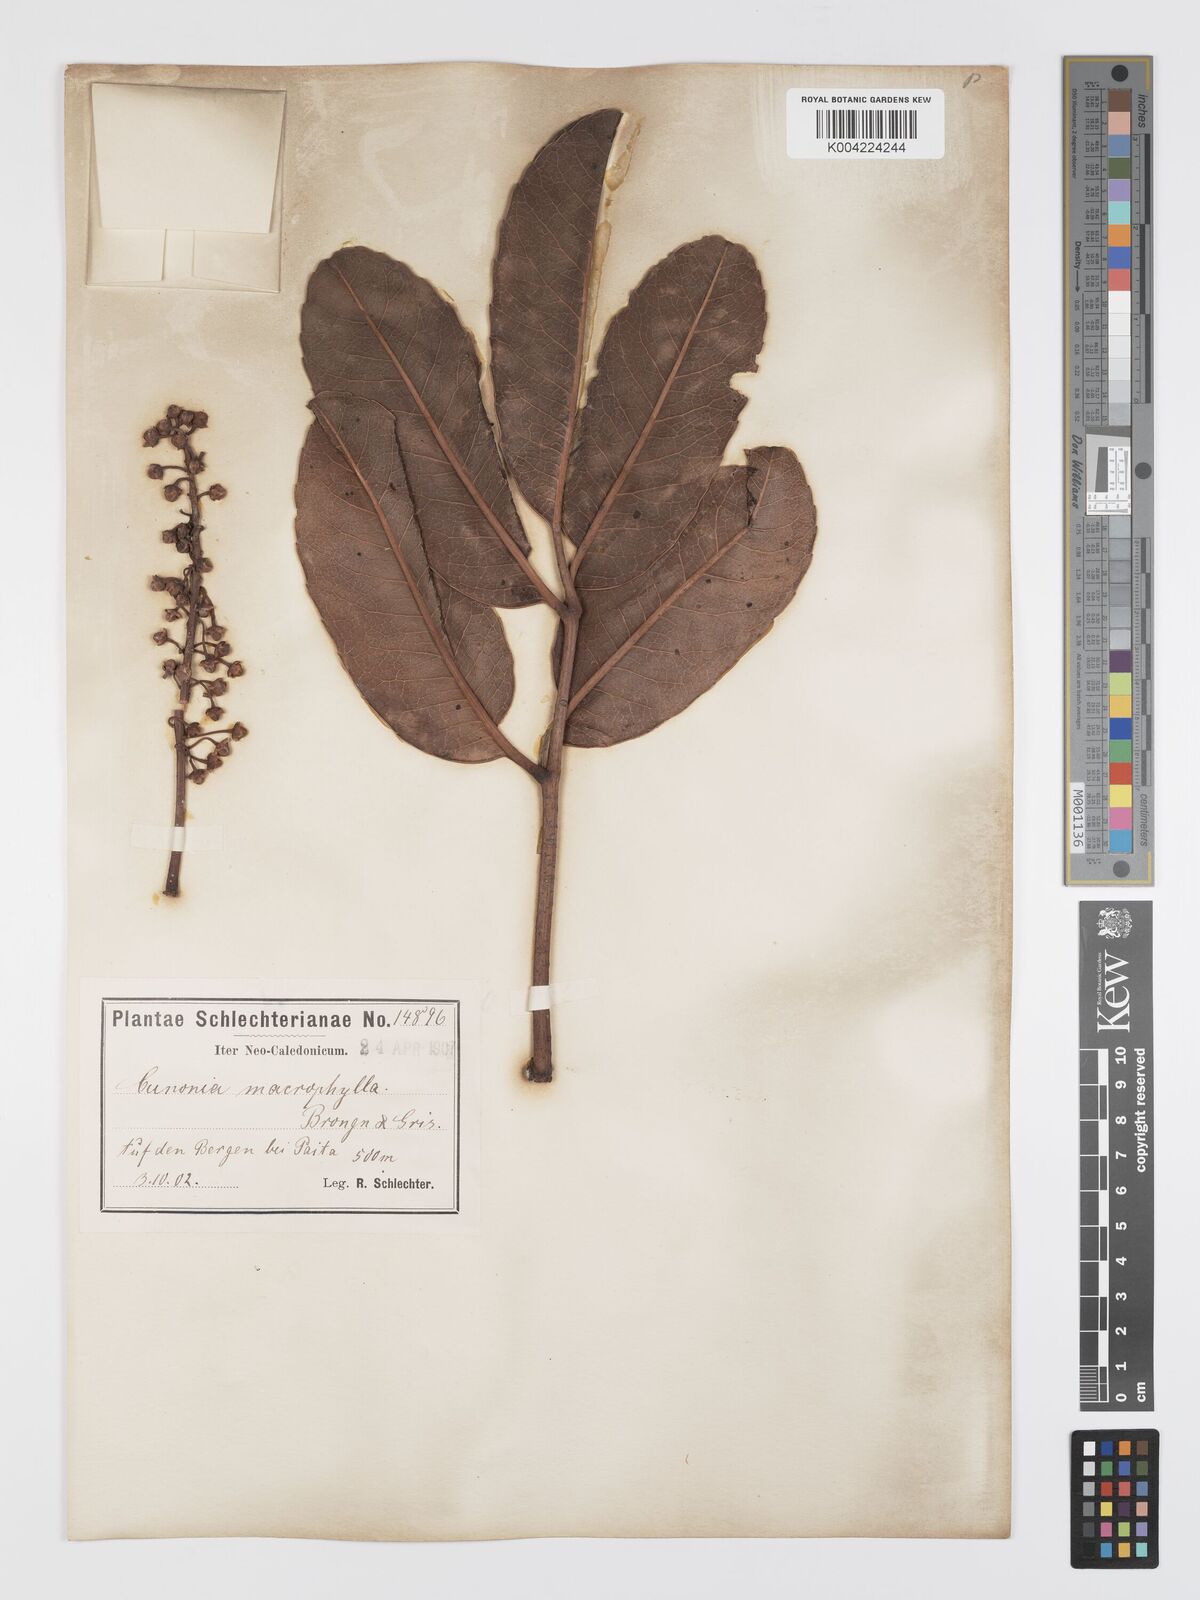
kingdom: Plantae
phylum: Tracheophyta
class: Magnoliopsida
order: Oxalidales
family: Cunoniaceae
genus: Cunonia
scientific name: Cunonia macrophylla
